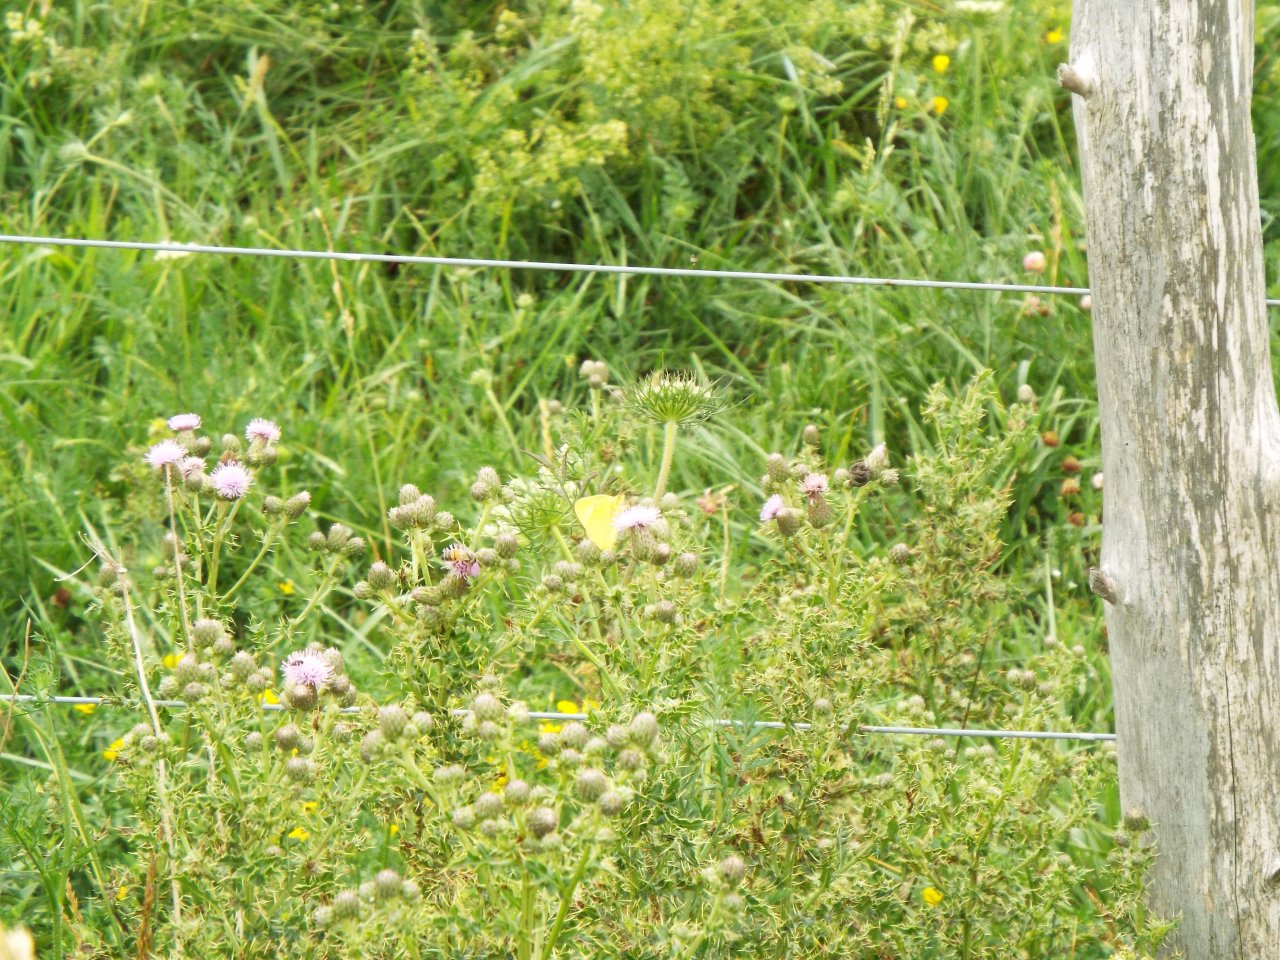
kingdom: Animalia
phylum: Arthropoda
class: Insecta
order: Lepidoptera
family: Pieridae
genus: Colias
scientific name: Colias philodice
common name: Clouded Sulphur
